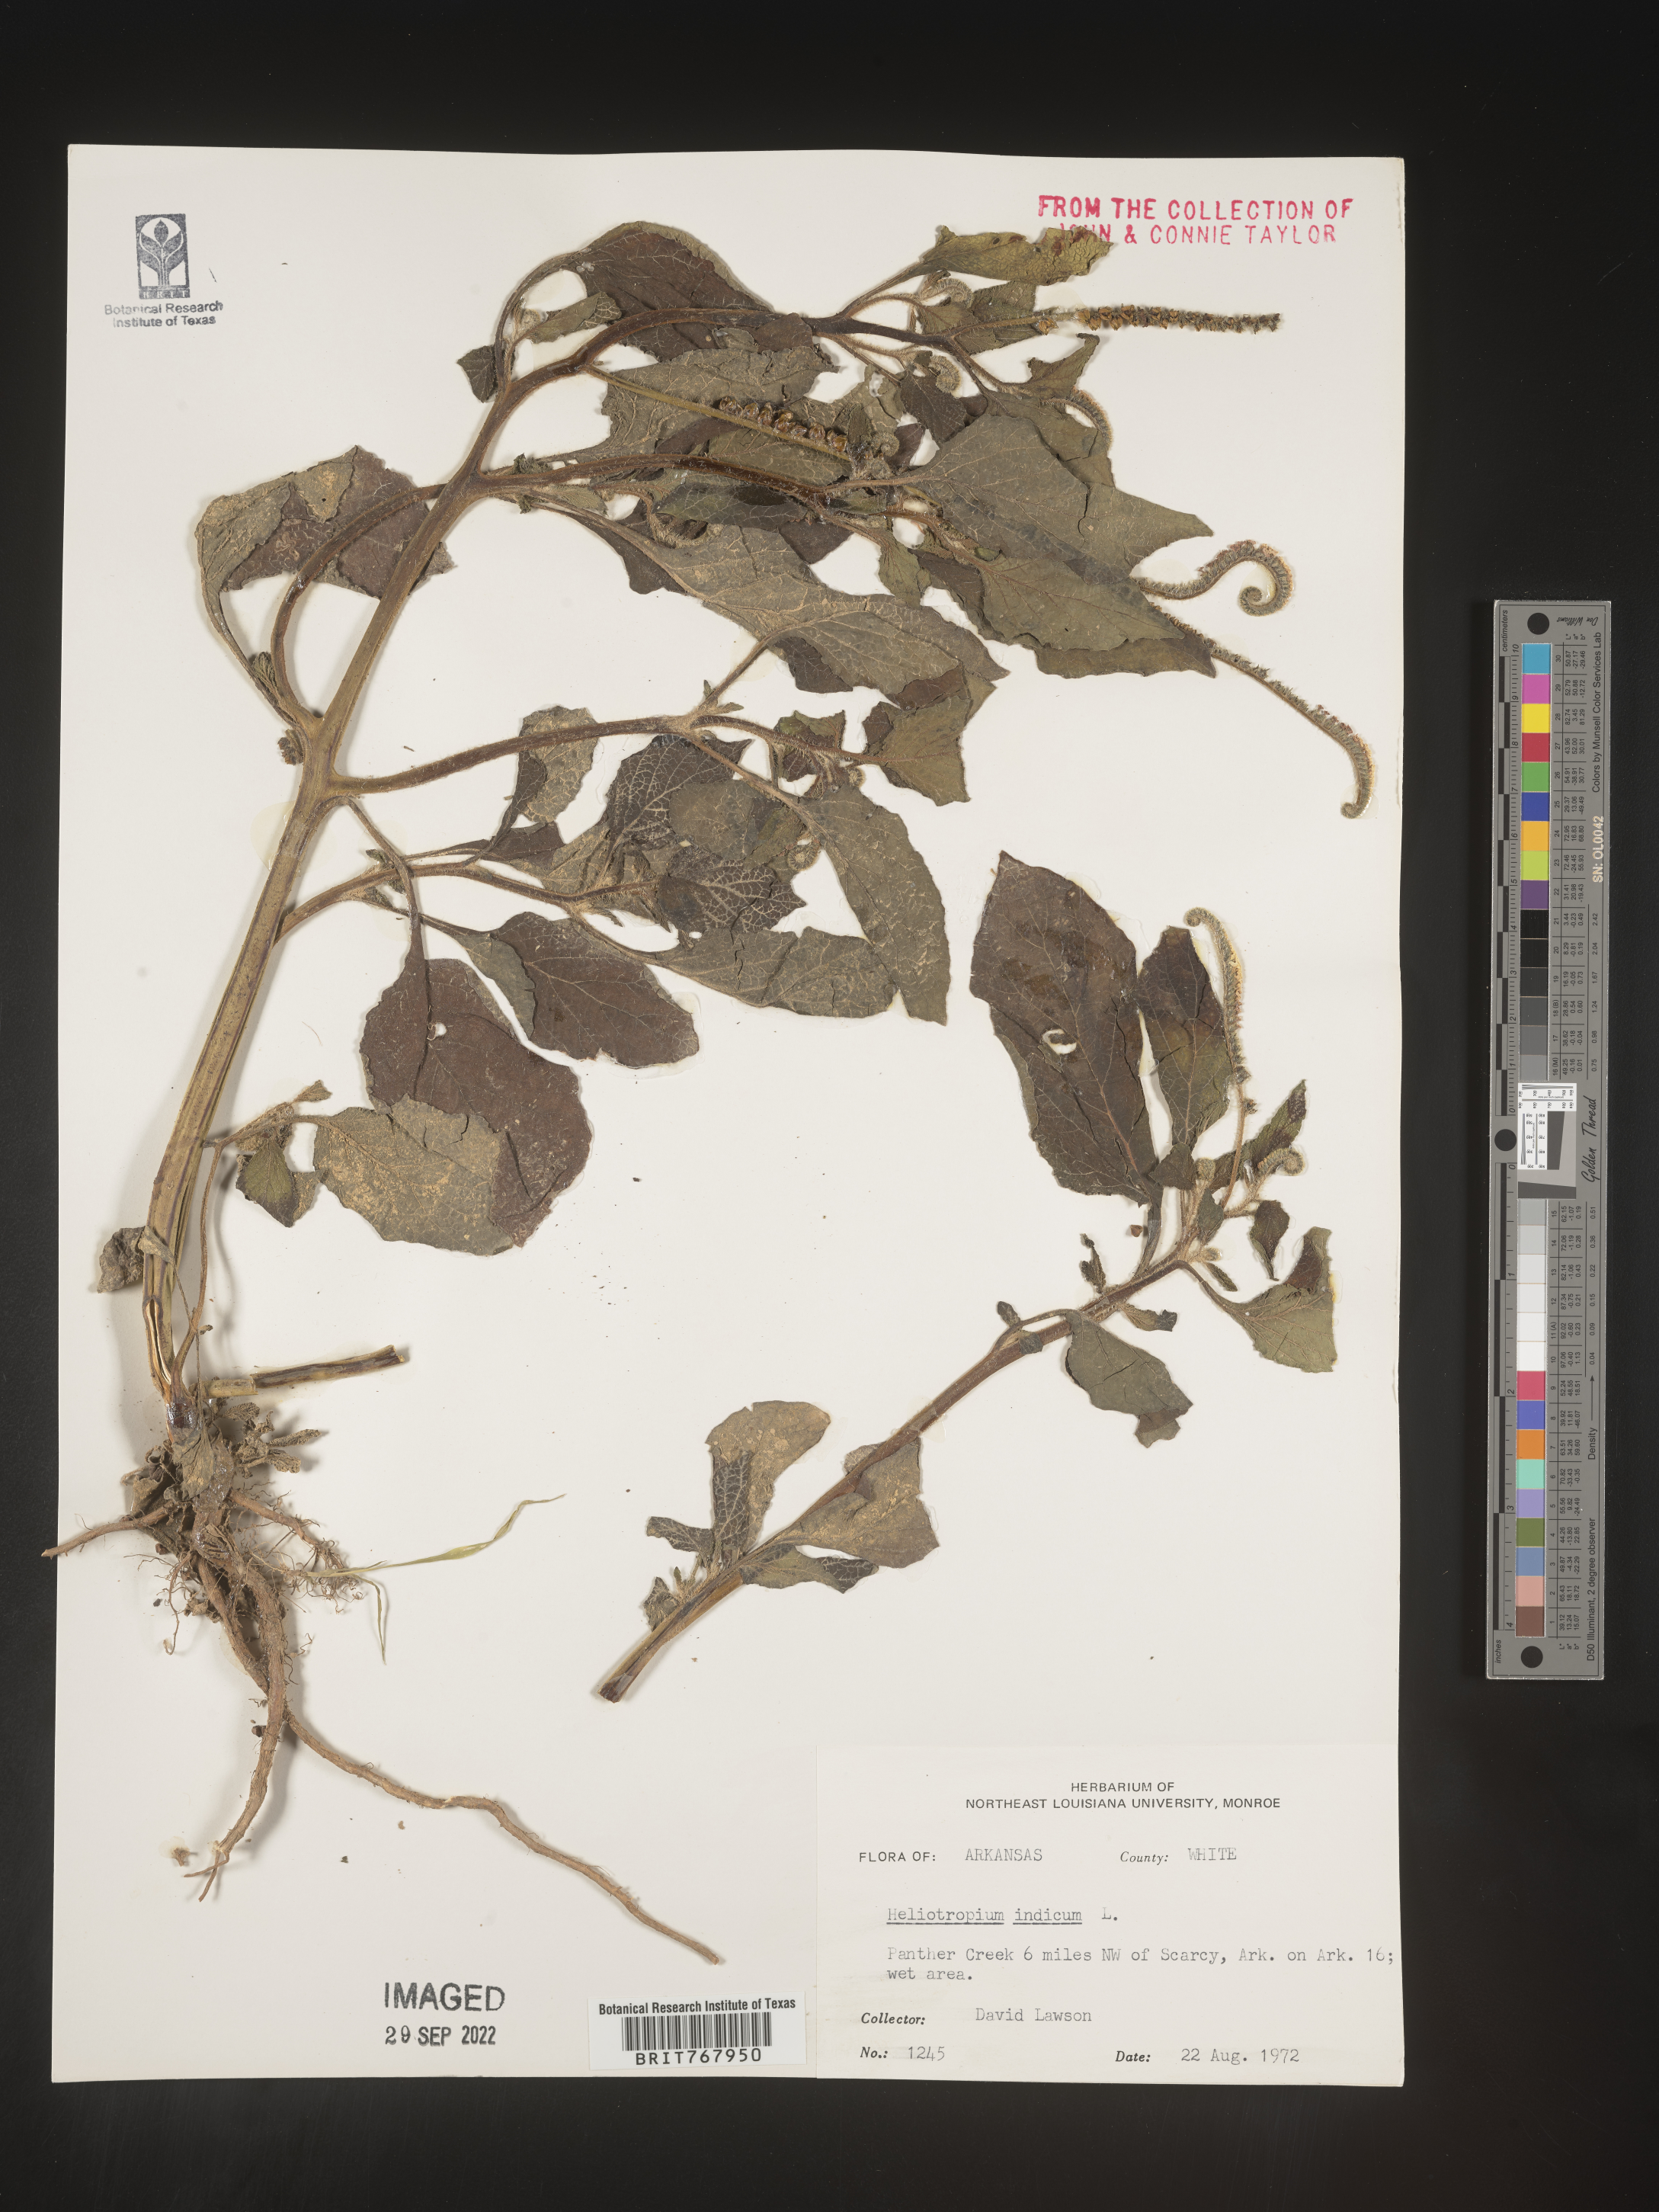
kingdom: Plantae
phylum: Tracheophyta
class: Magnoliopsida
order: Boraginales
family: Heliotropiaceae
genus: Heliotropium
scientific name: Heliotropium indicum
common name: Indian heliotrope
